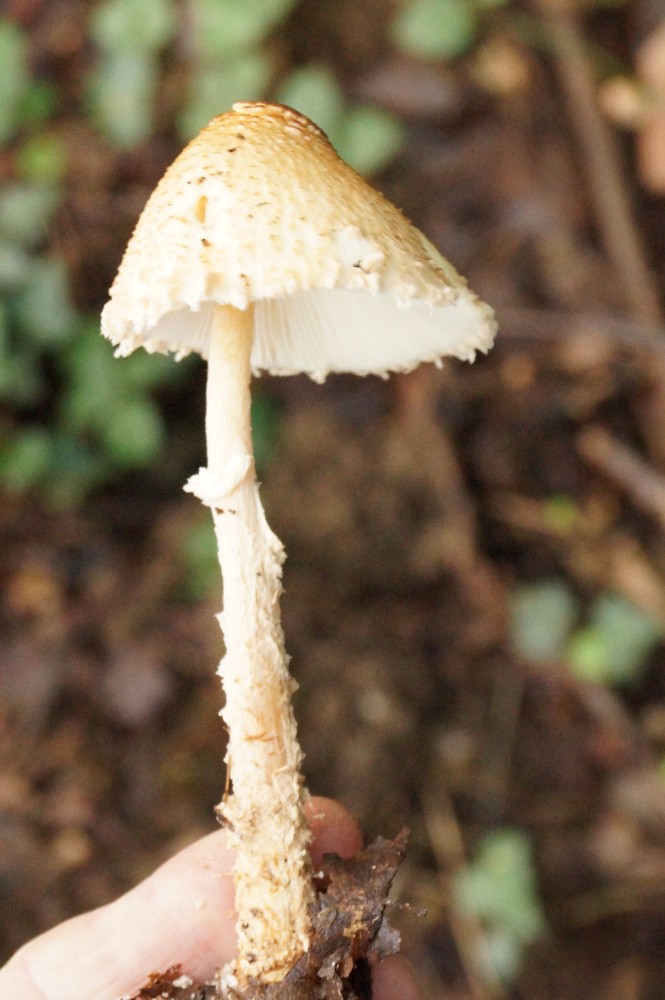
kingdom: Fungi
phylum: Basidiomycota
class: Agaricomycetes
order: Agaricales
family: Agaricaceae
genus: Lepiota
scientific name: Lepiota magnispora
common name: gulfnugget parasolhat
